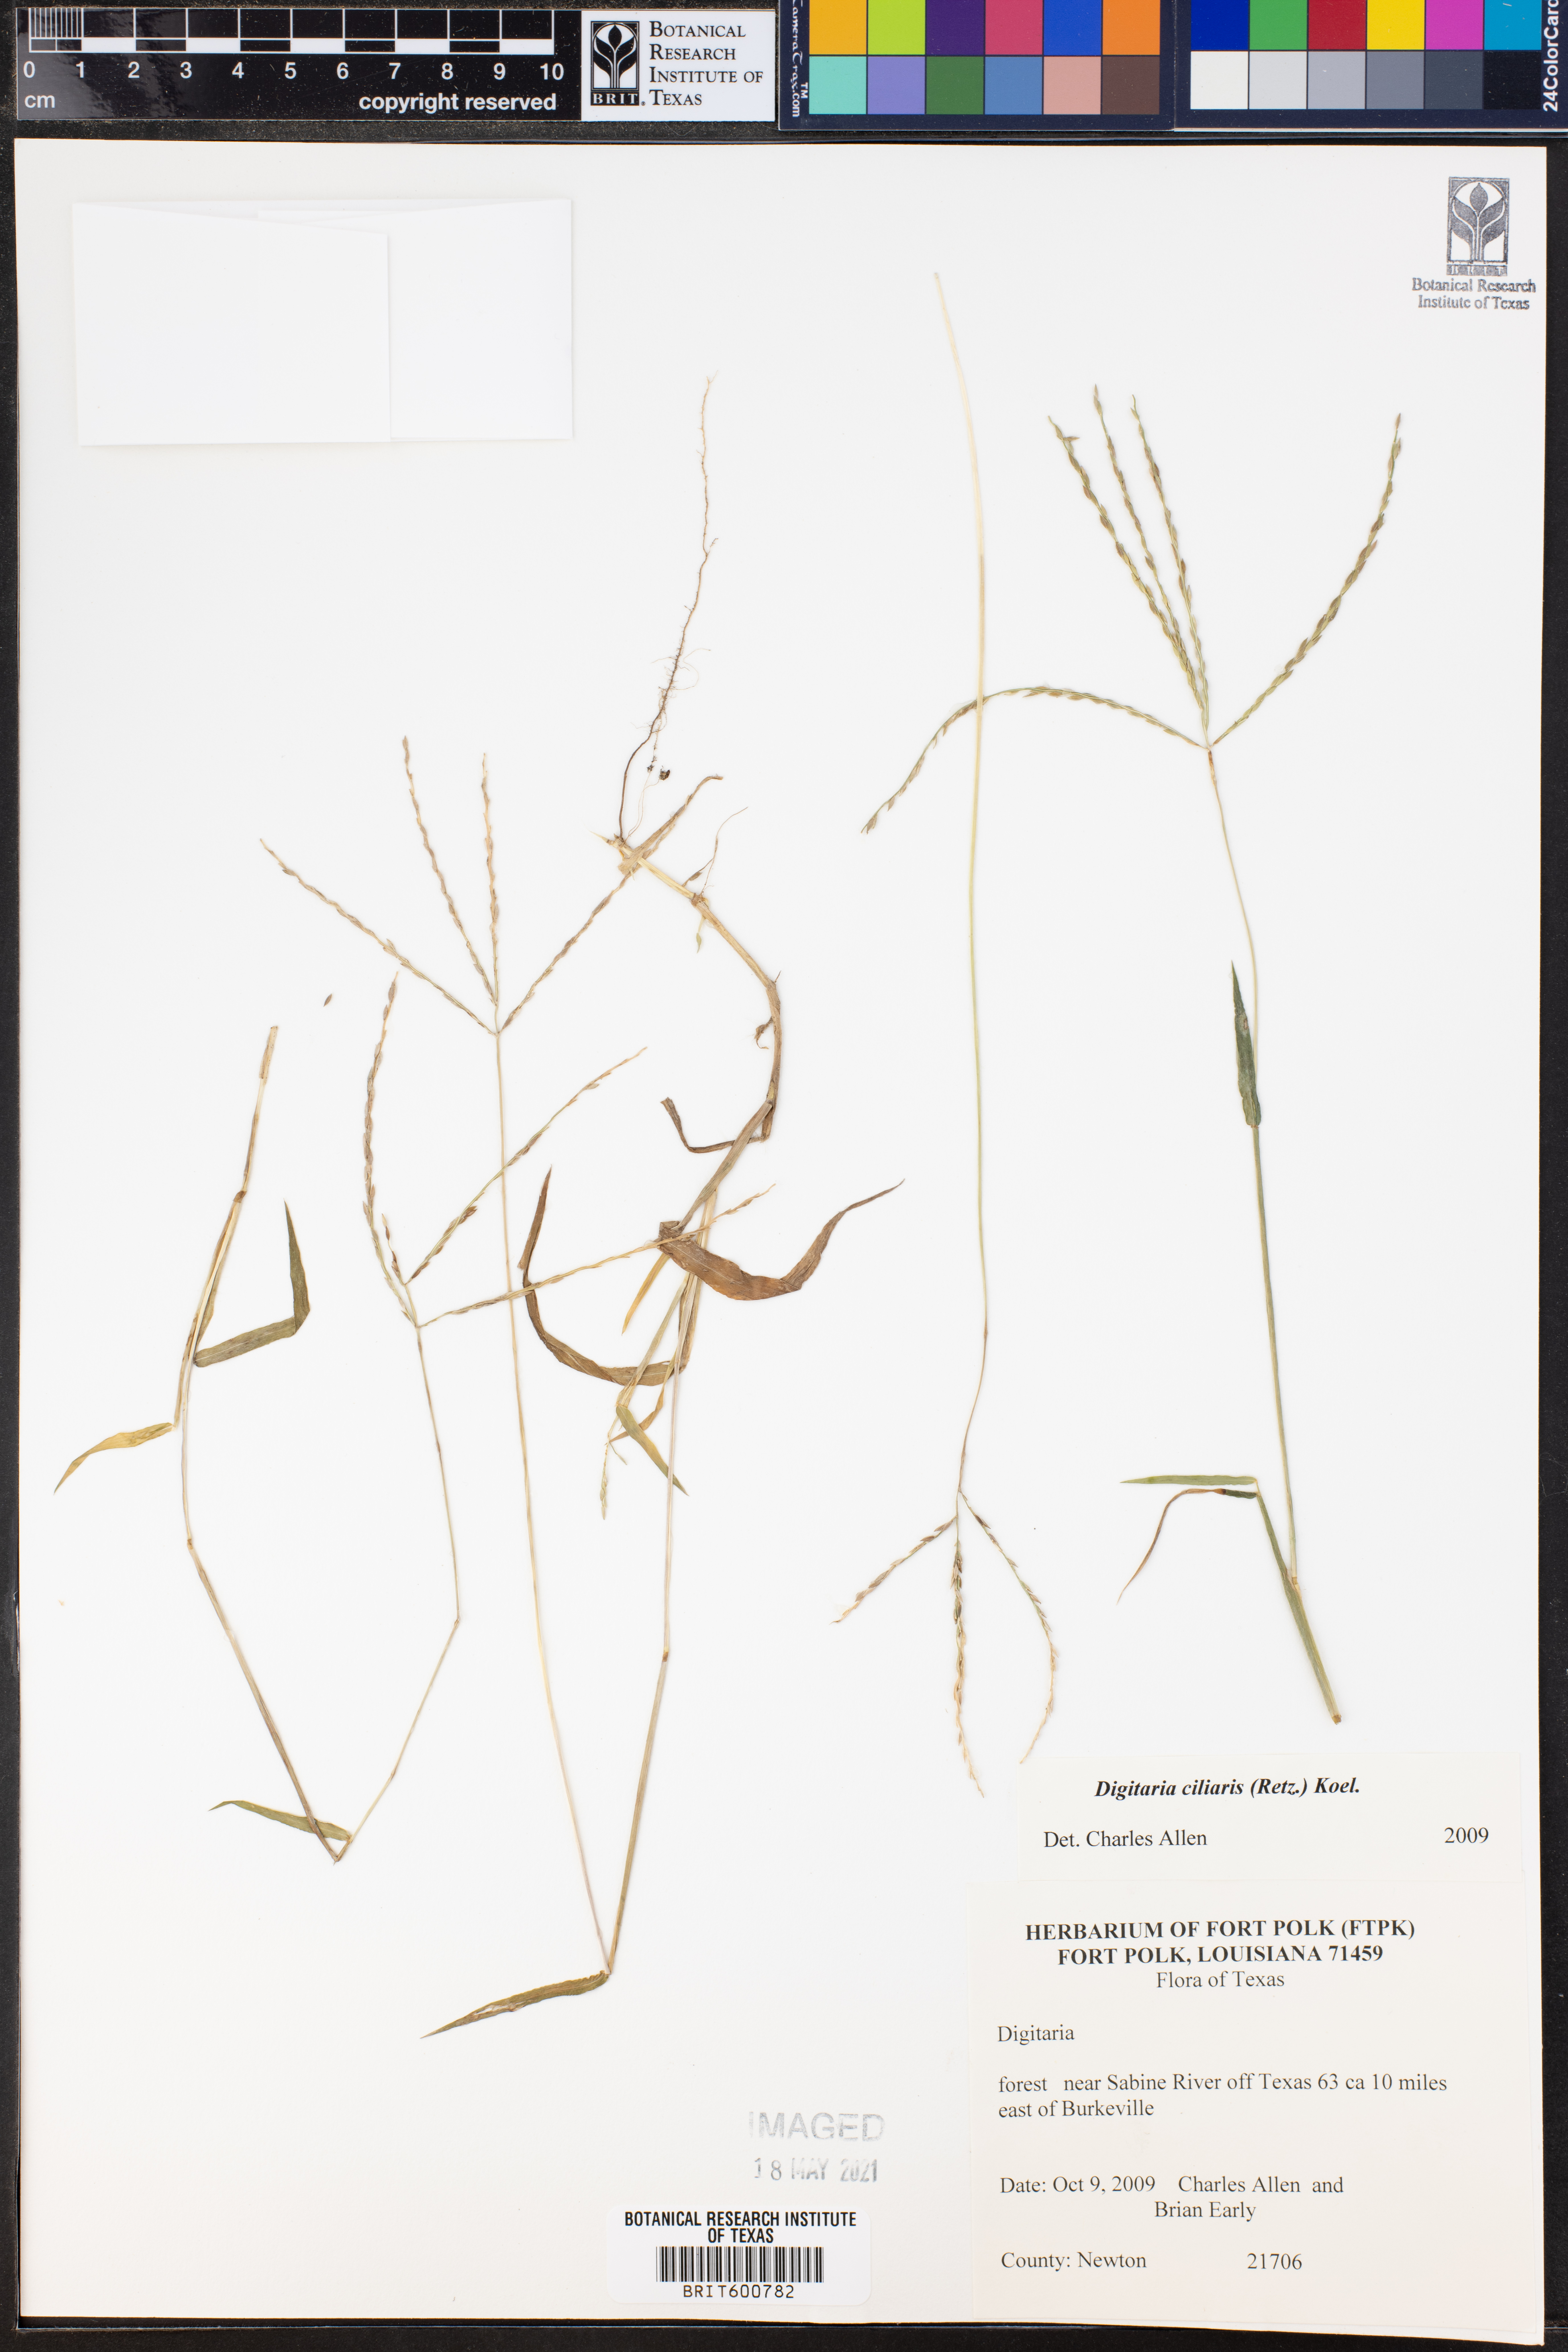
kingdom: Plantae
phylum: Tracheophyta
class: Liliopsida
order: Poales
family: Poaceae
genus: Digitaria
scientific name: Digitaria ciliaris
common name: Tropical finger-grass
